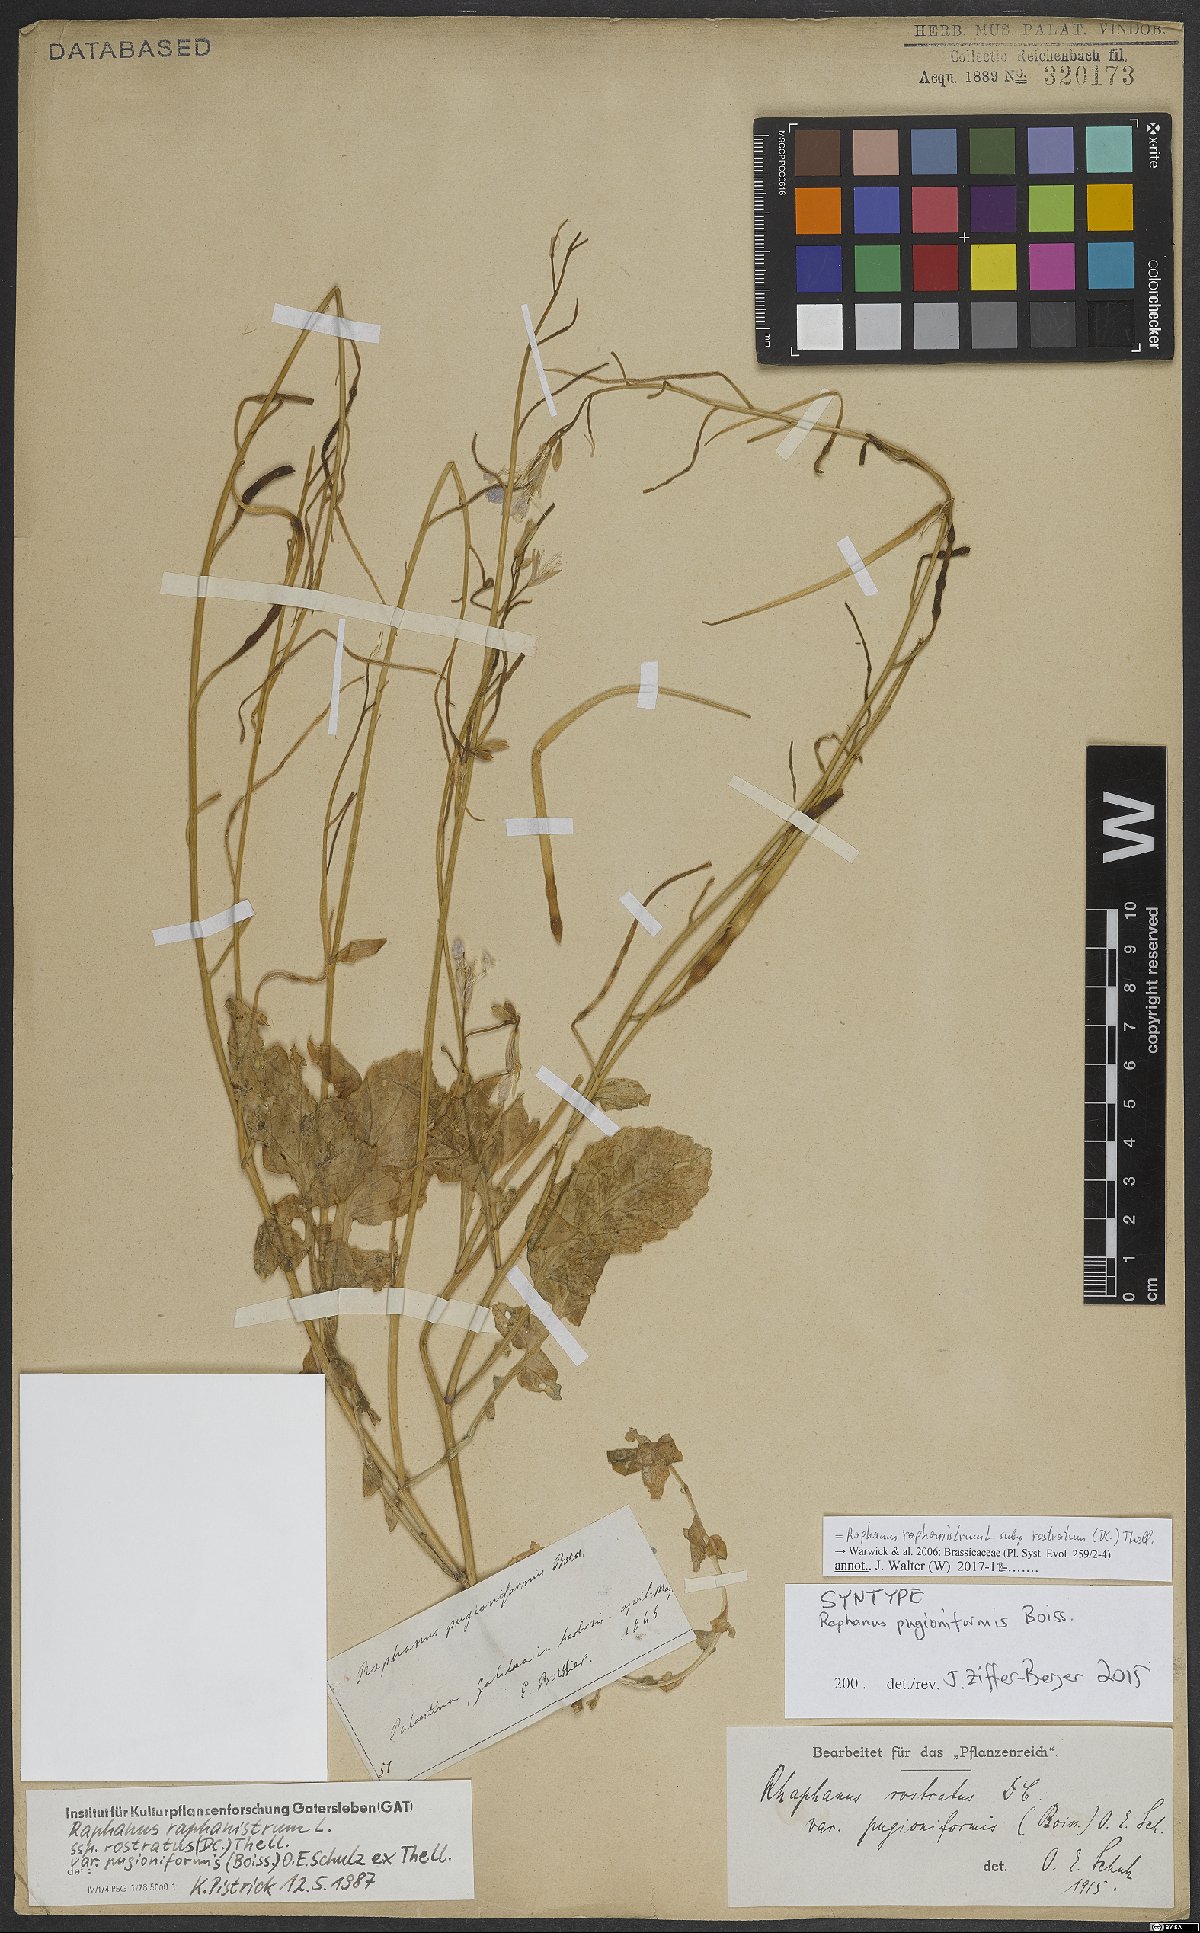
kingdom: Plantae
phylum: Tracheophyta
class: Magnoliopsida
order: Brassicales
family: Brassicaceae
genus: Raphanus
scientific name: Raphanus raphanistrum
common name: Wild radish
